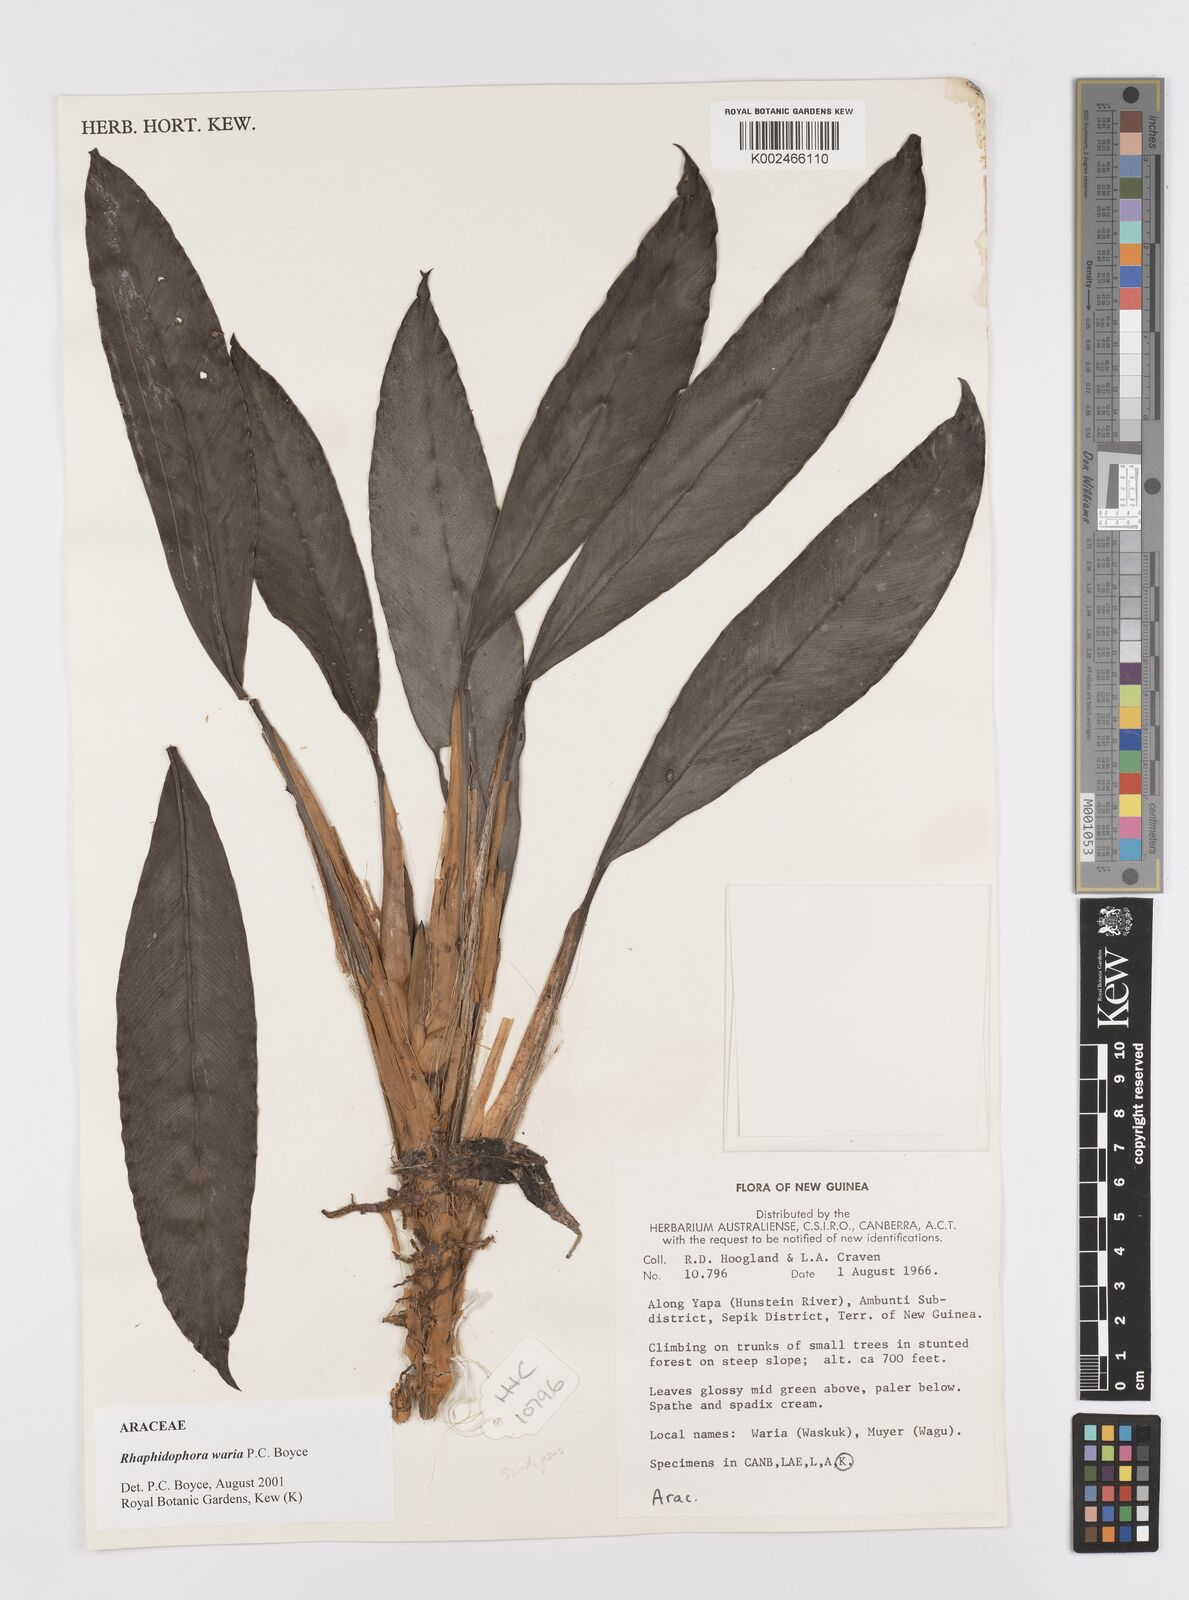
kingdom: Plantae
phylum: Tracheophyta
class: Liliopsida
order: Alismatales
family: Araceae
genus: Rhaphidophora
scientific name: Rhaphidophora waria
